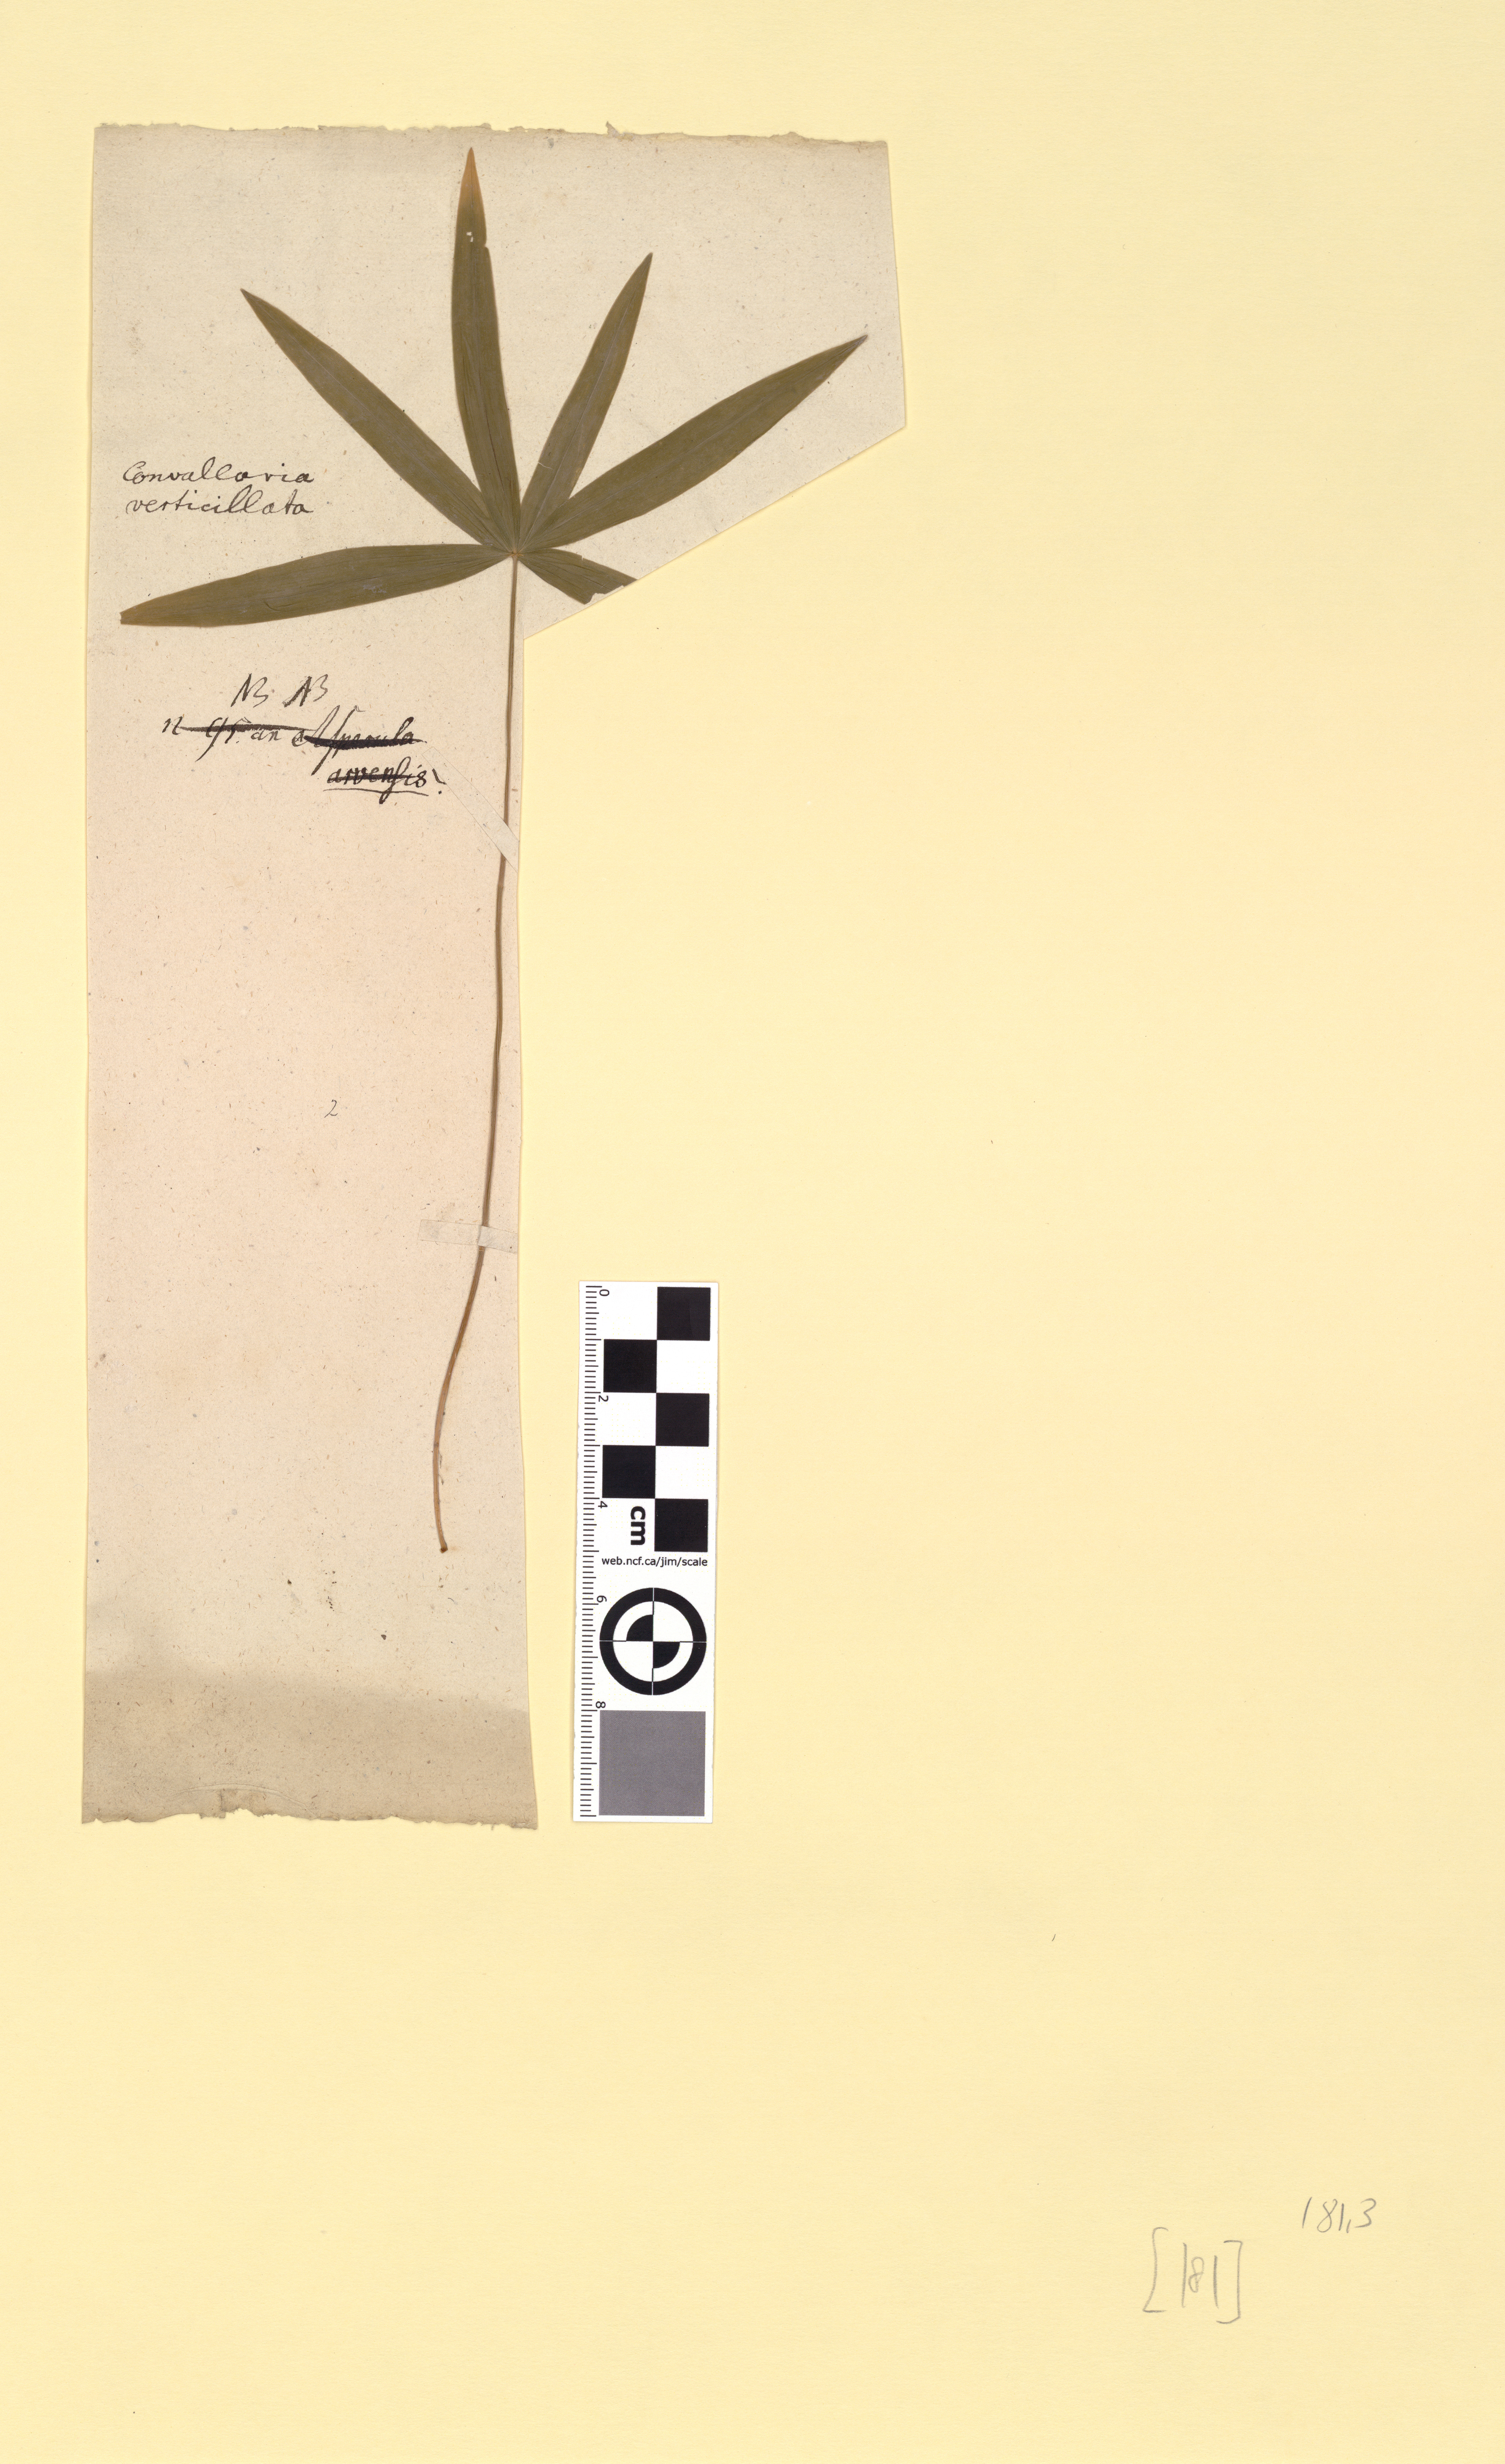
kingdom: Plantae
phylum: Tracheophyta
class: Liliopsida
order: Asparagales
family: Asparagaceae
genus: Polygonatum
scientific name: Polygonatum verticillatum
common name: Whorled solomon's-seal
